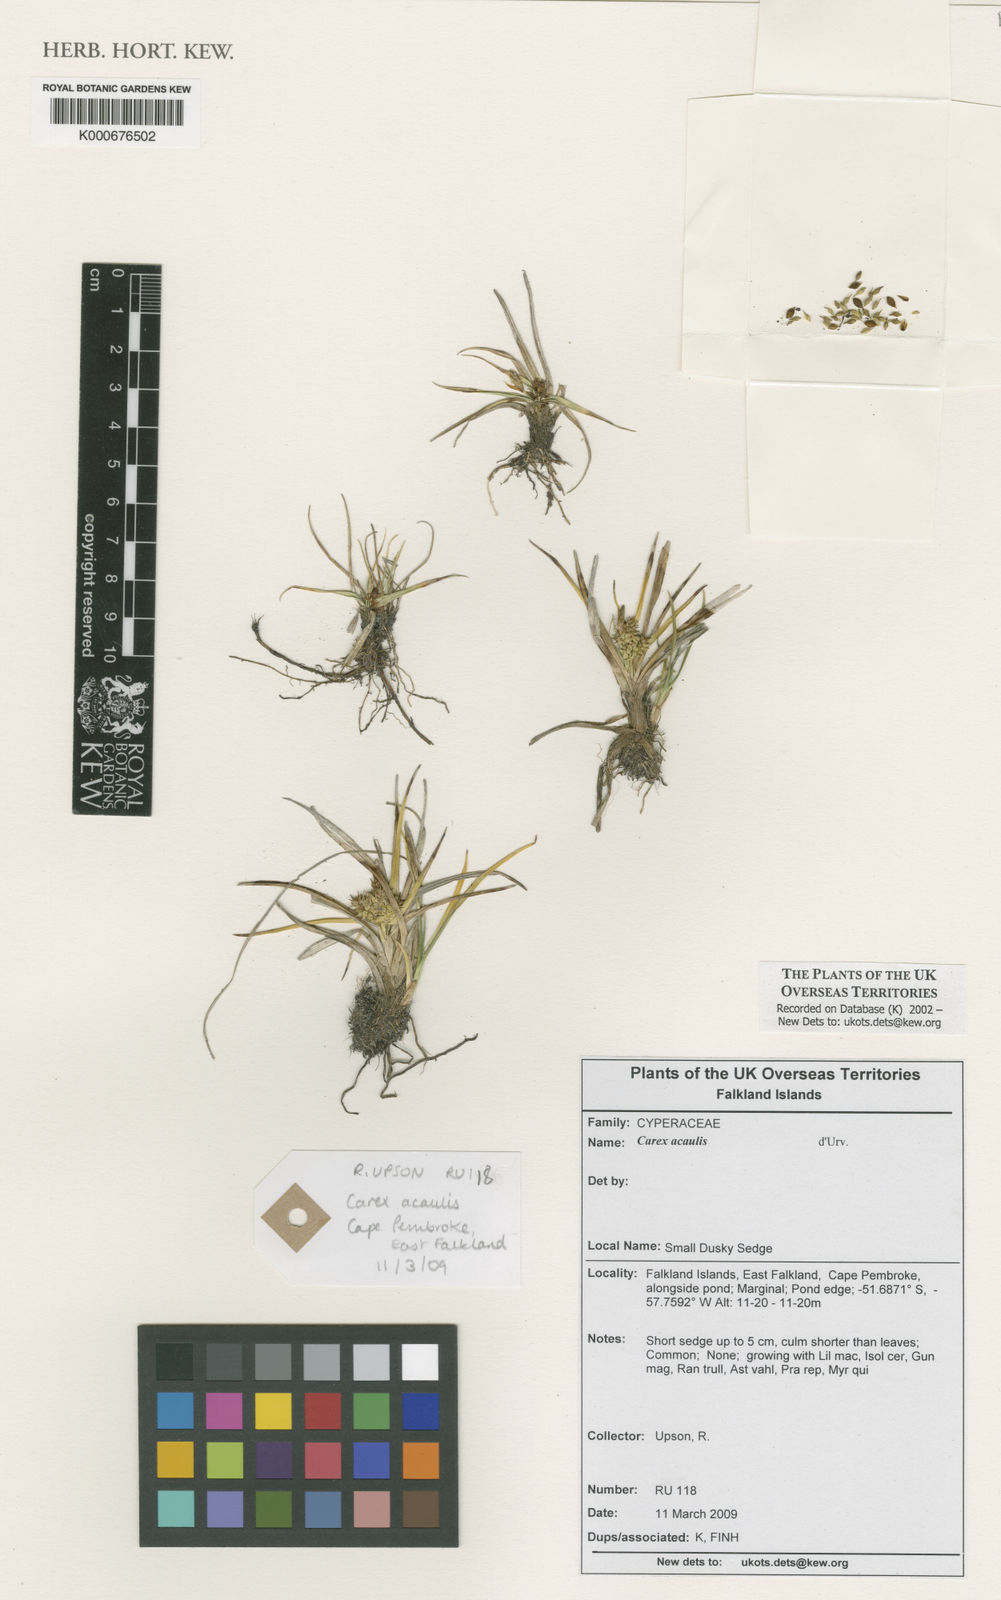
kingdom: Plantae
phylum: Tracheophyta
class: Liliopsida
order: Poales
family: Cyperaceae
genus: Carex
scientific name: Carex sagei
